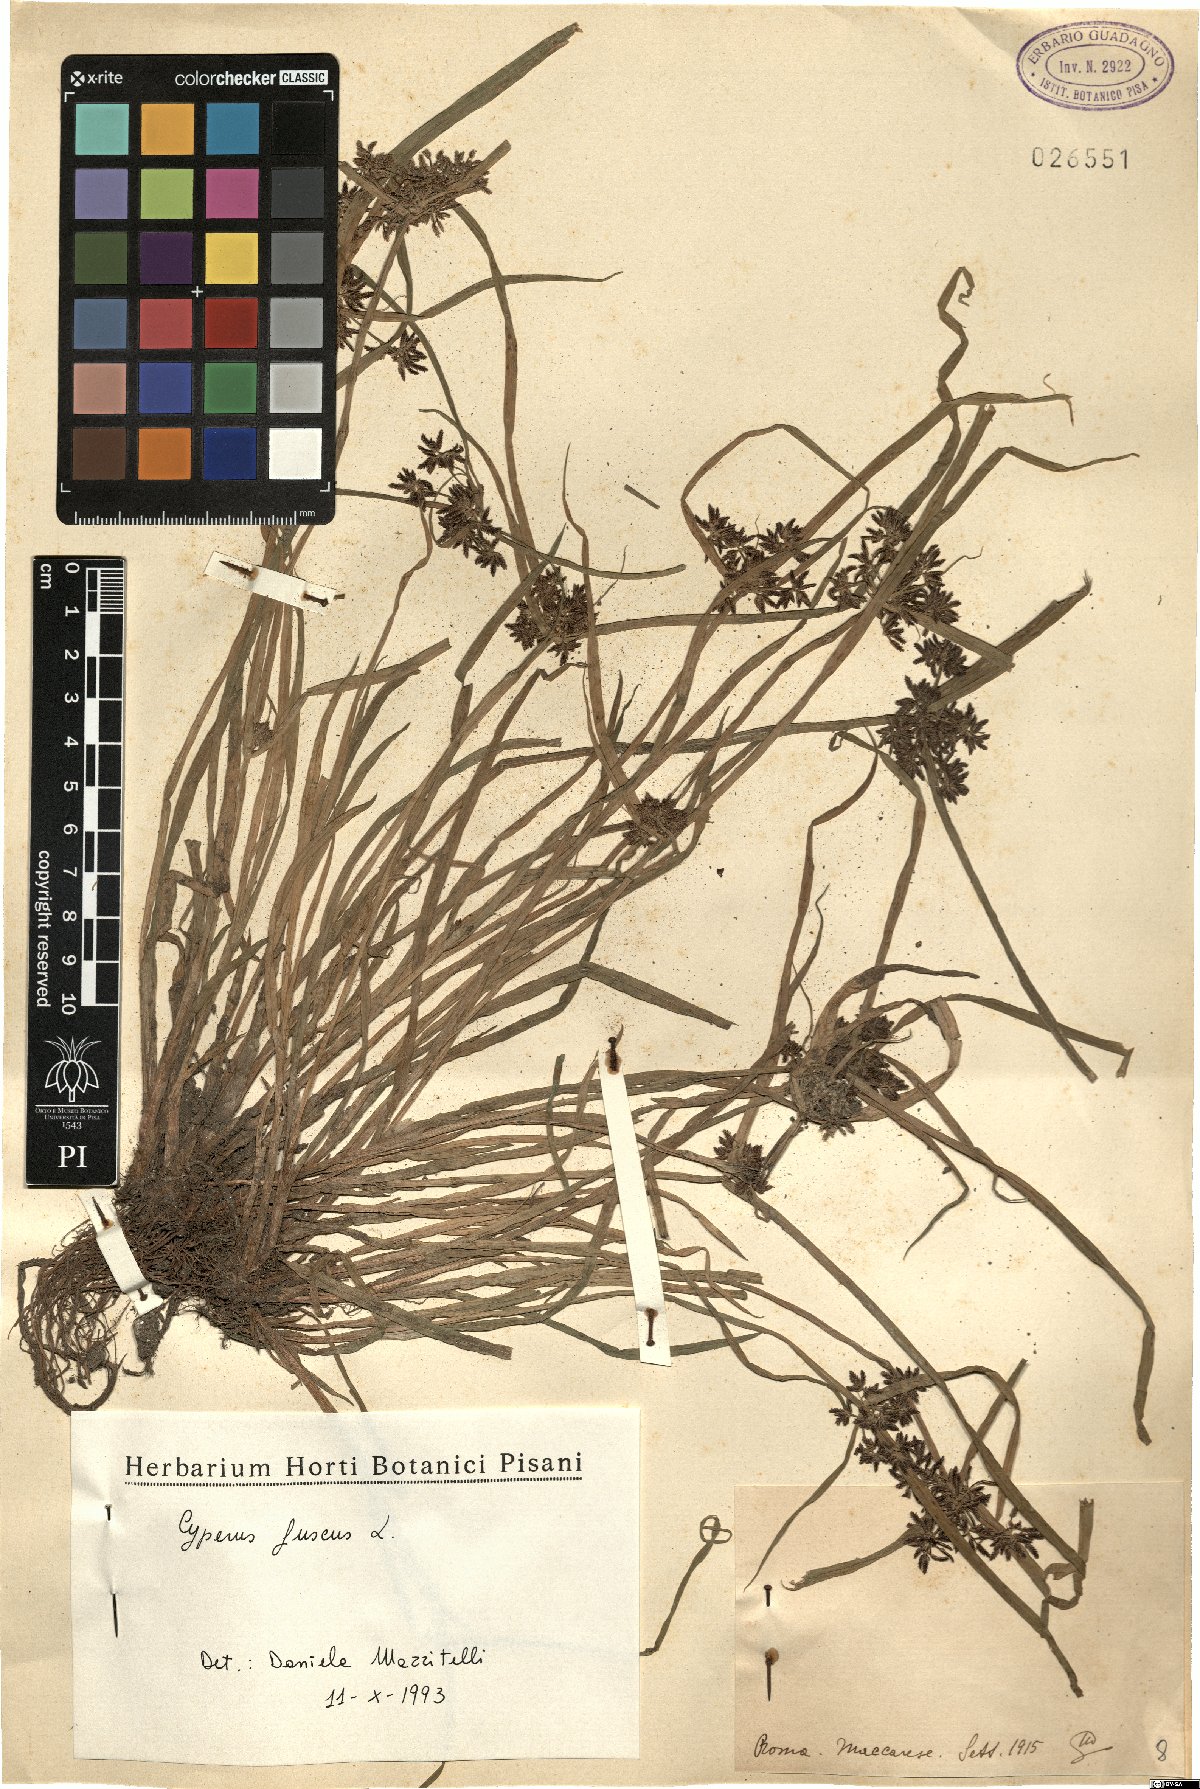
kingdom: Plantae
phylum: Tracheophyta
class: Liliopsida
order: Poales
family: Cyperaceae
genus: Cyperus
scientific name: Cyperus fuscus
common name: Brown galingale
